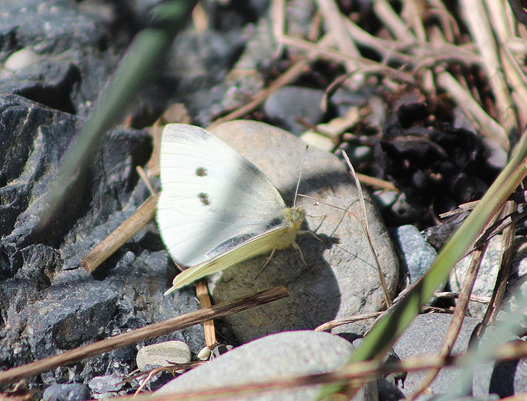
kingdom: Animalia
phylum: Arthropoda
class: Insecta
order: Lepidoptera
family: Pieridae
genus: Pieris
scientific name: Pieris rapae
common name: Cabbage White
